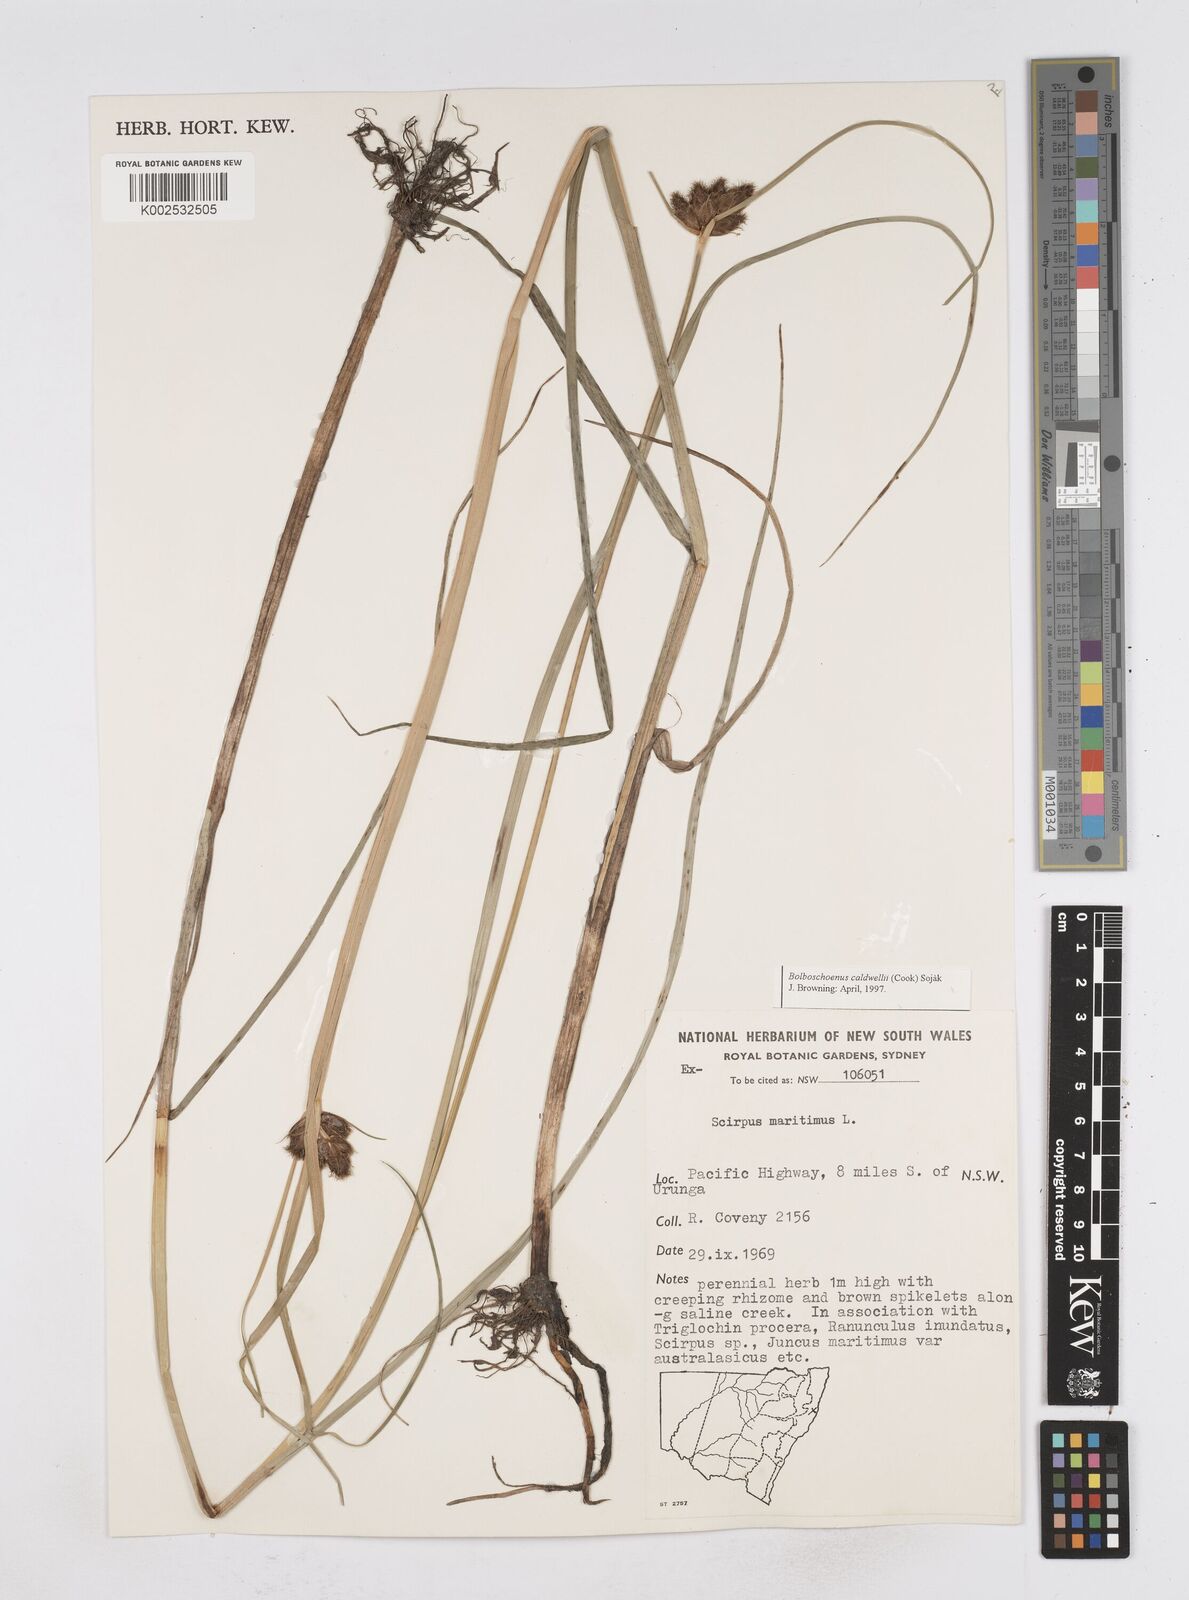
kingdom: Plantae
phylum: Tracheophyta
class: Liliopsida
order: Poales
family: Cyperaceae
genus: Bolboschoenus
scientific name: Bolboschoenus maritimus
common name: Sea club-rush
